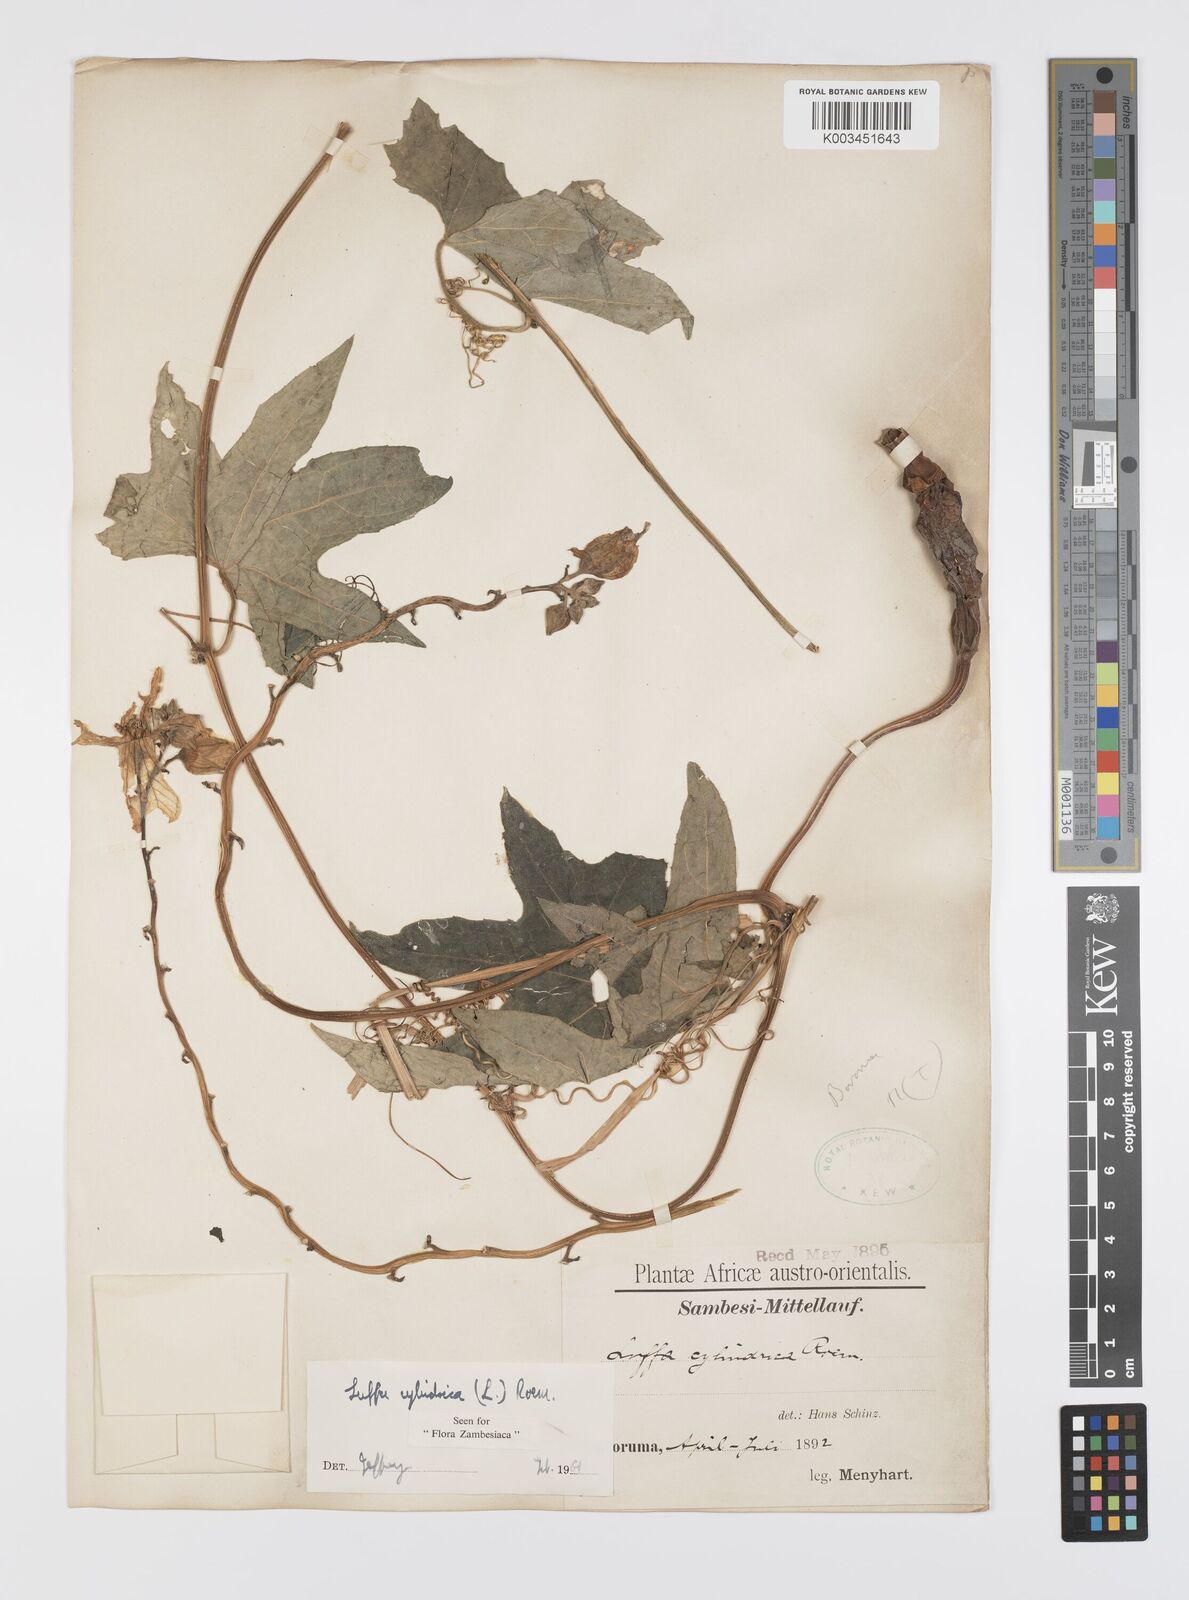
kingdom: Plantae
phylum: Tracheophyta
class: Magnoliopsida
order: Cucurbitales
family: Cucurbitaceae
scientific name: Cucurbitaceae
